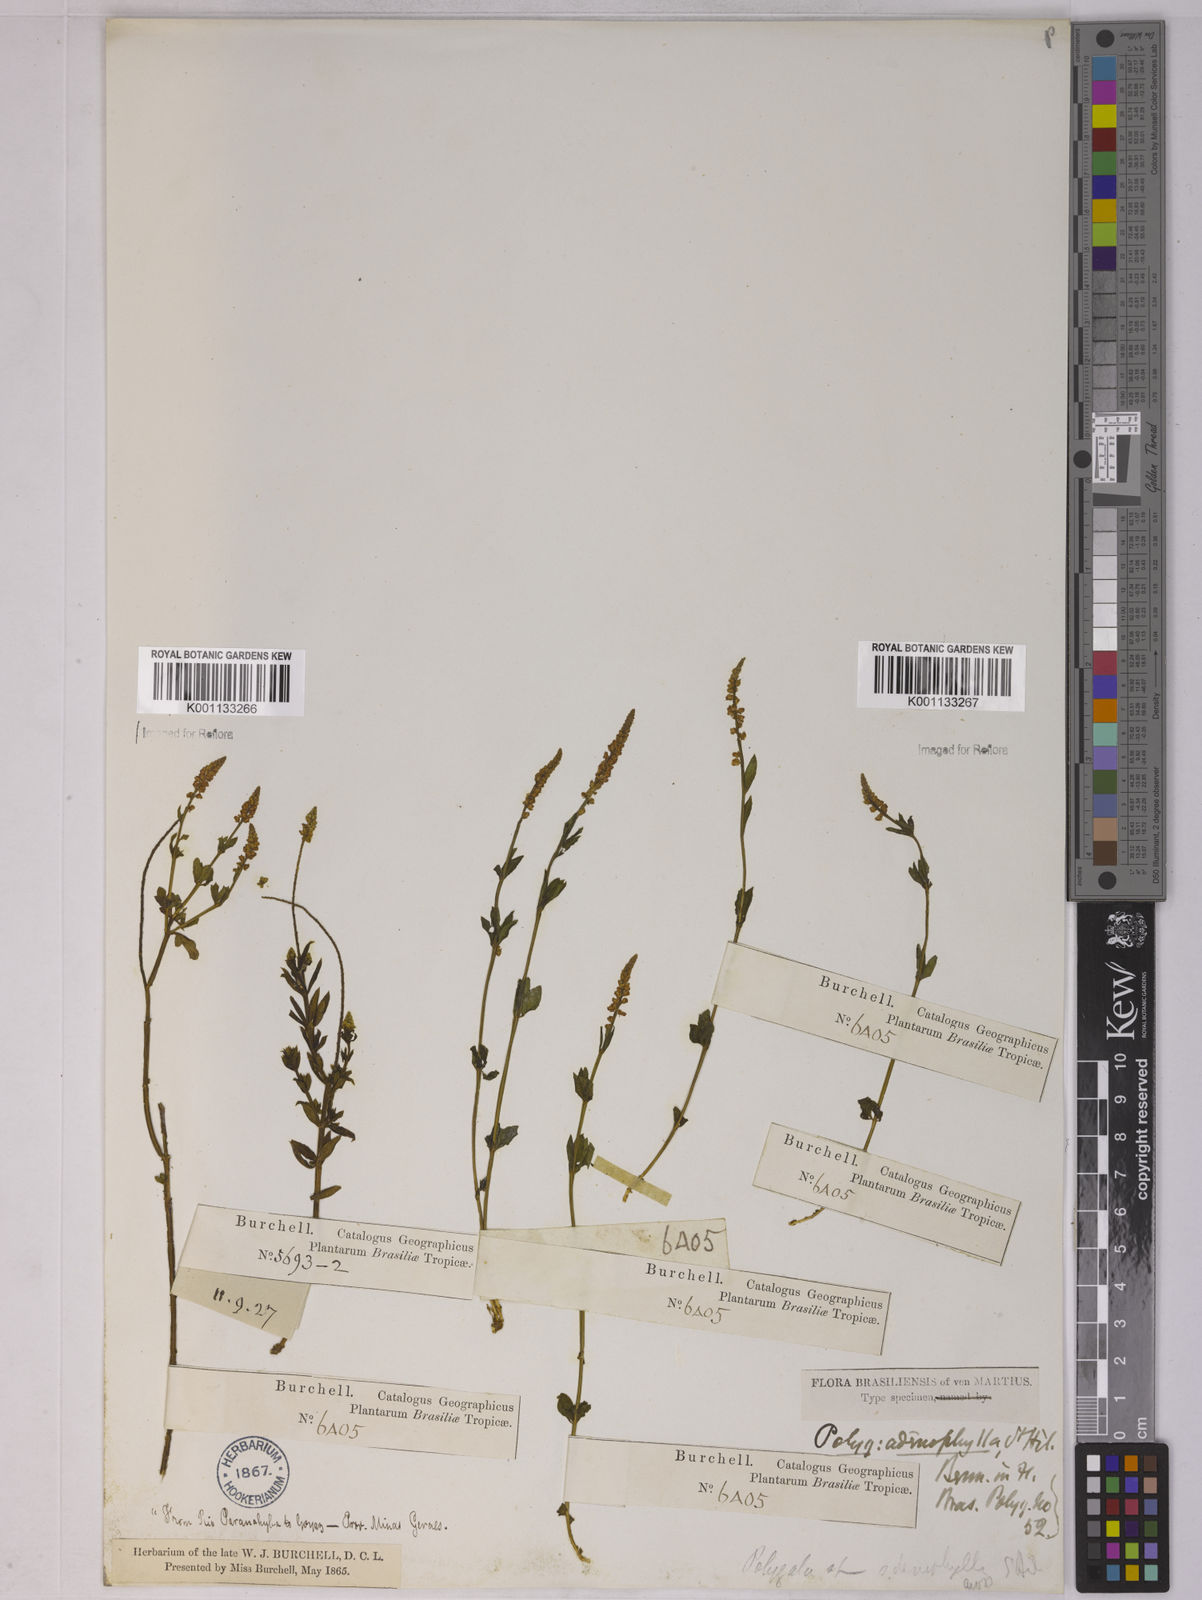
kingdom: Plantae
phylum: Tracheophyta
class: Magnoliopsida
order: Fabales
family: Polygalaceae
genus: Polygala
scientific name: Polygala adenophylla
